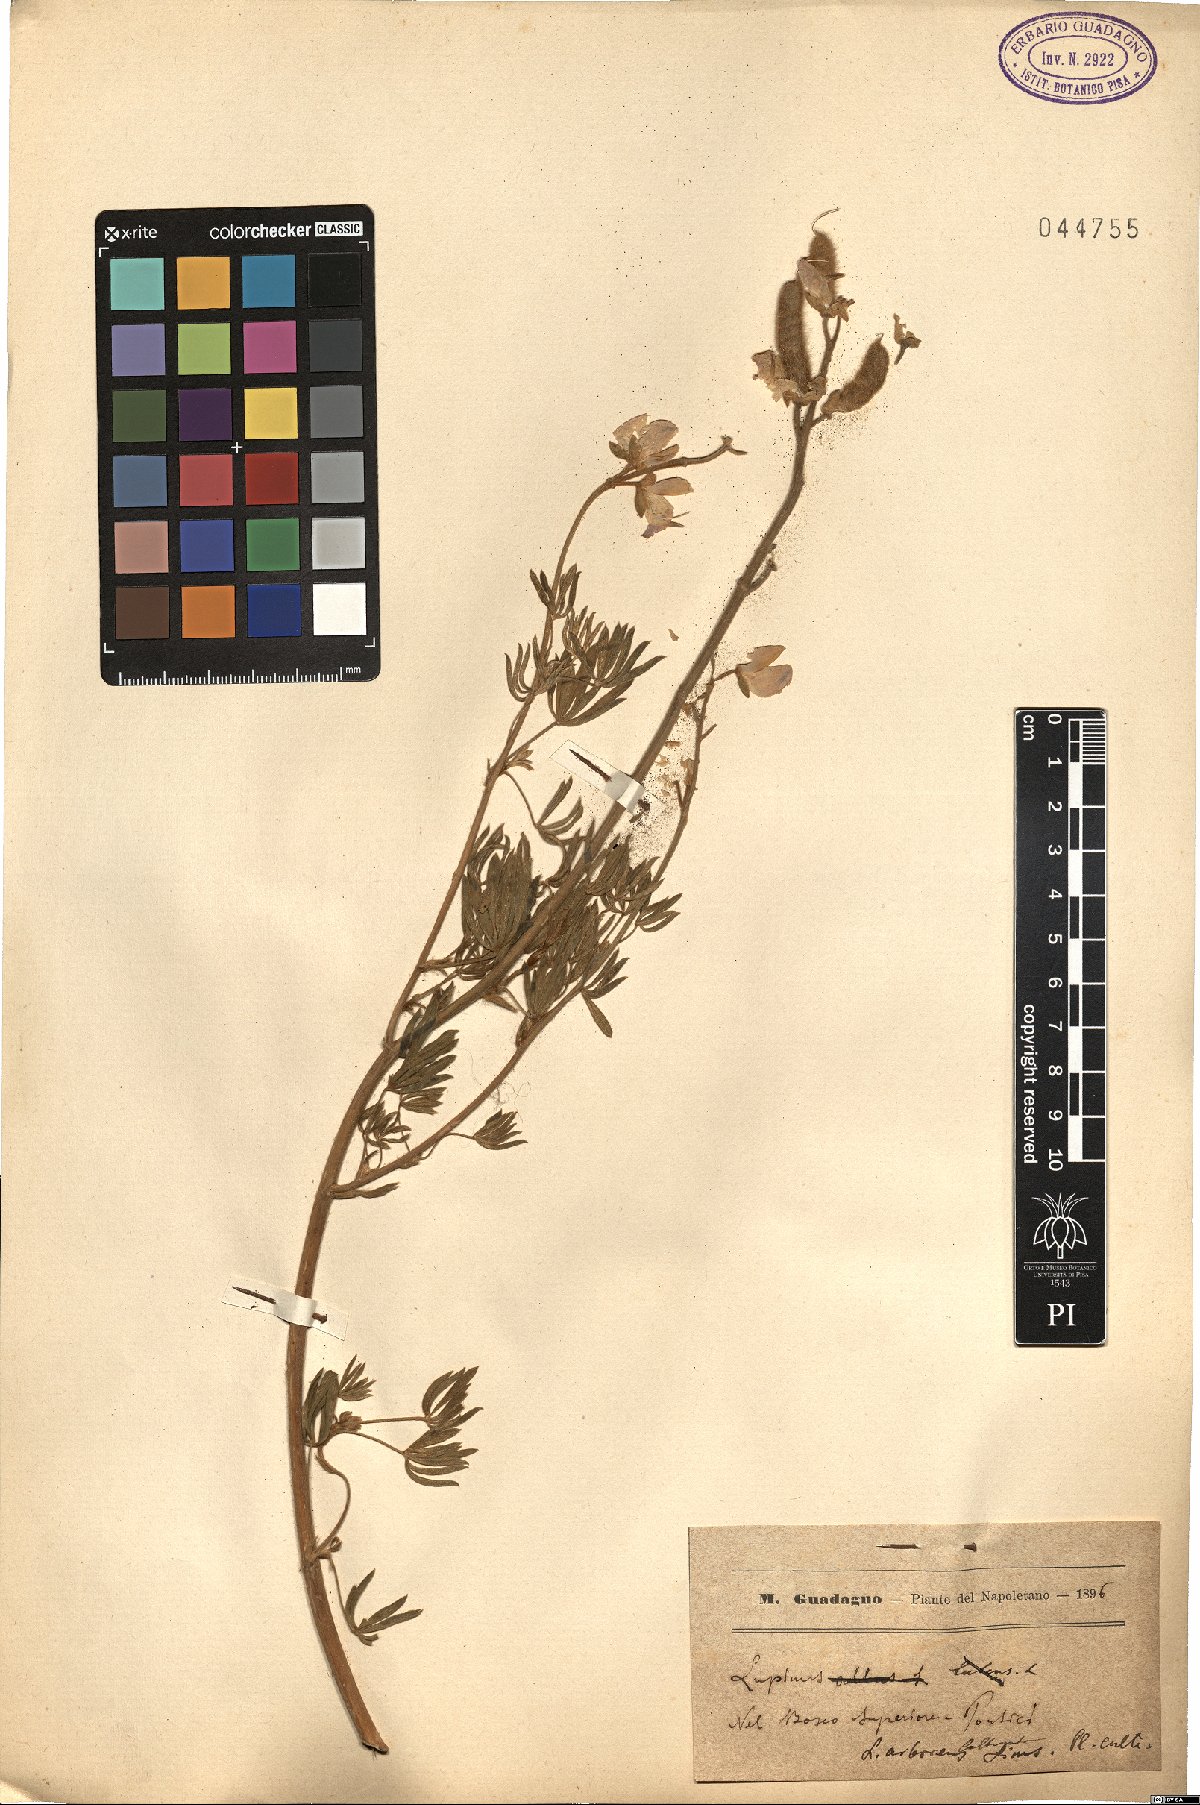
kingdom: Plantae
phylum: Tracheophyta
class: Magnoliopsida
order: Fabales
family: Fabaceae
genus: Lupinus
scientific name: Lupinus arboreus
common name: Yellow bush lupine
